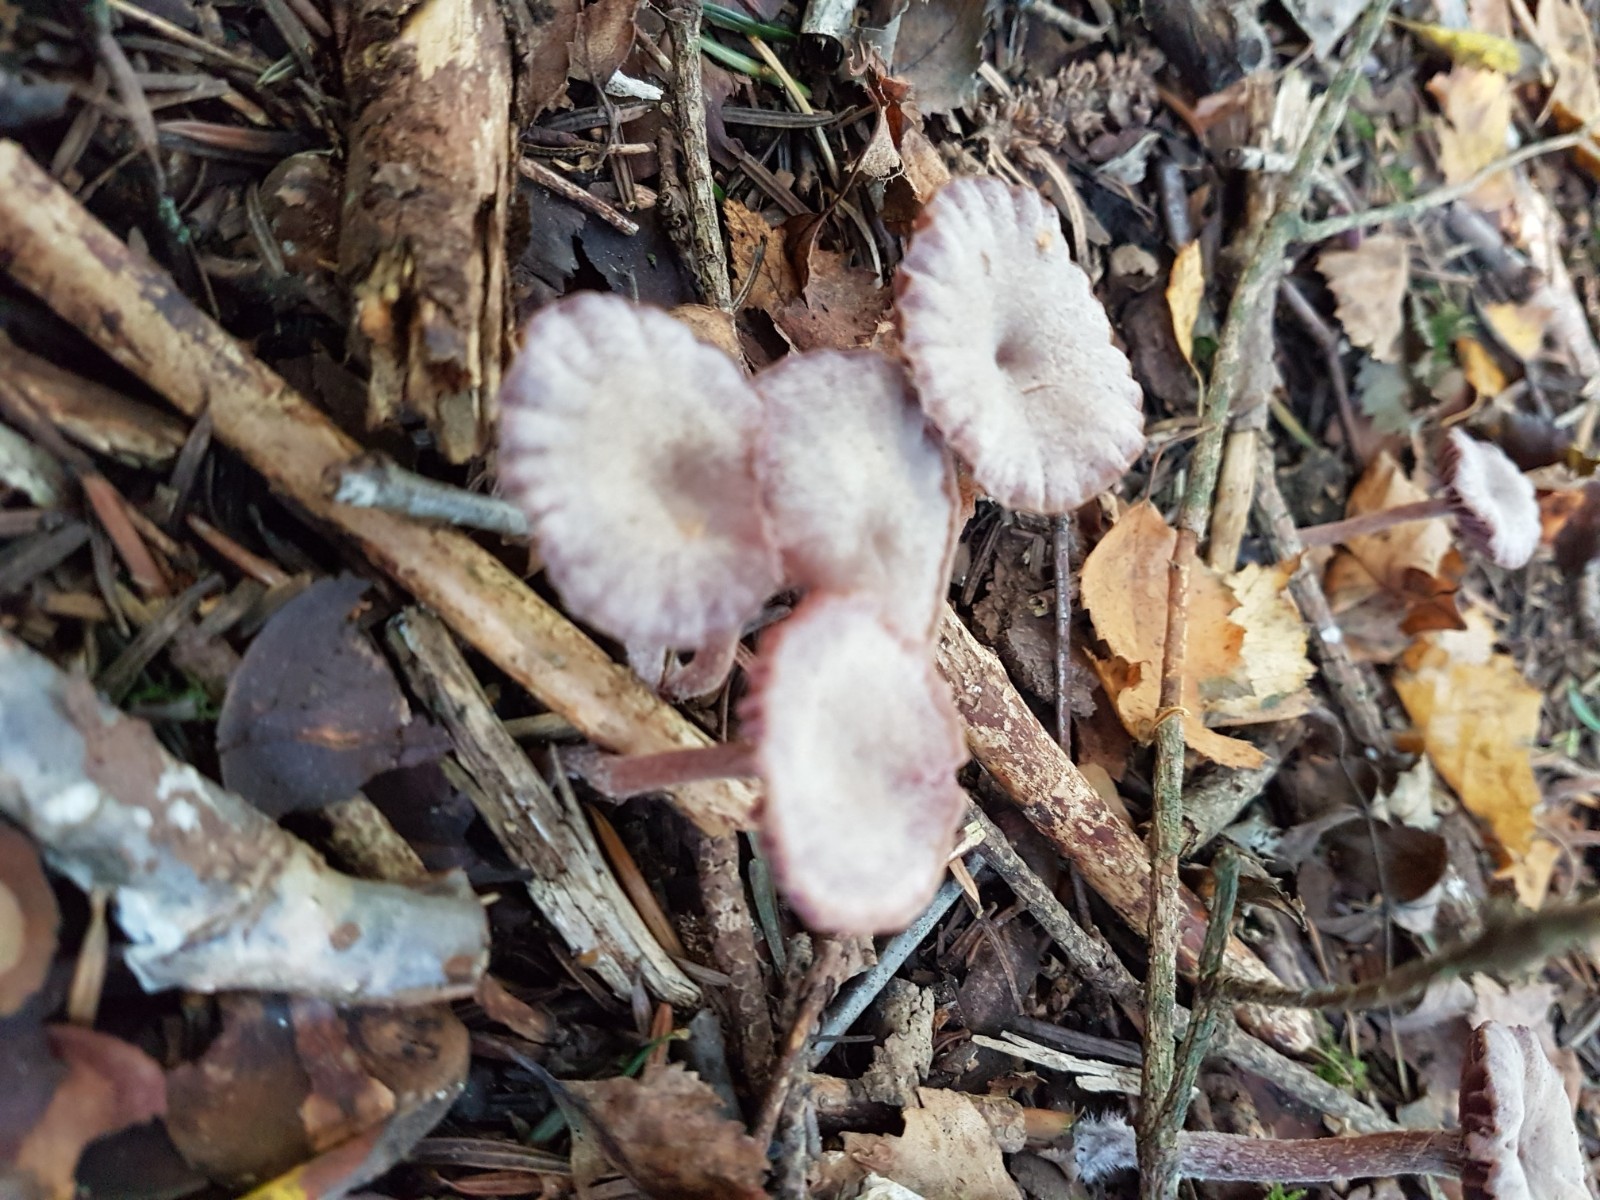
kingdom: Fungi
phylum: Basidiomycota
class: Agaricomycetes
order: Agaricales
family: Hydnangiaceae
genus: Laccaria
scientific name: Laccaria amethystina
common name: violet ametysthat
